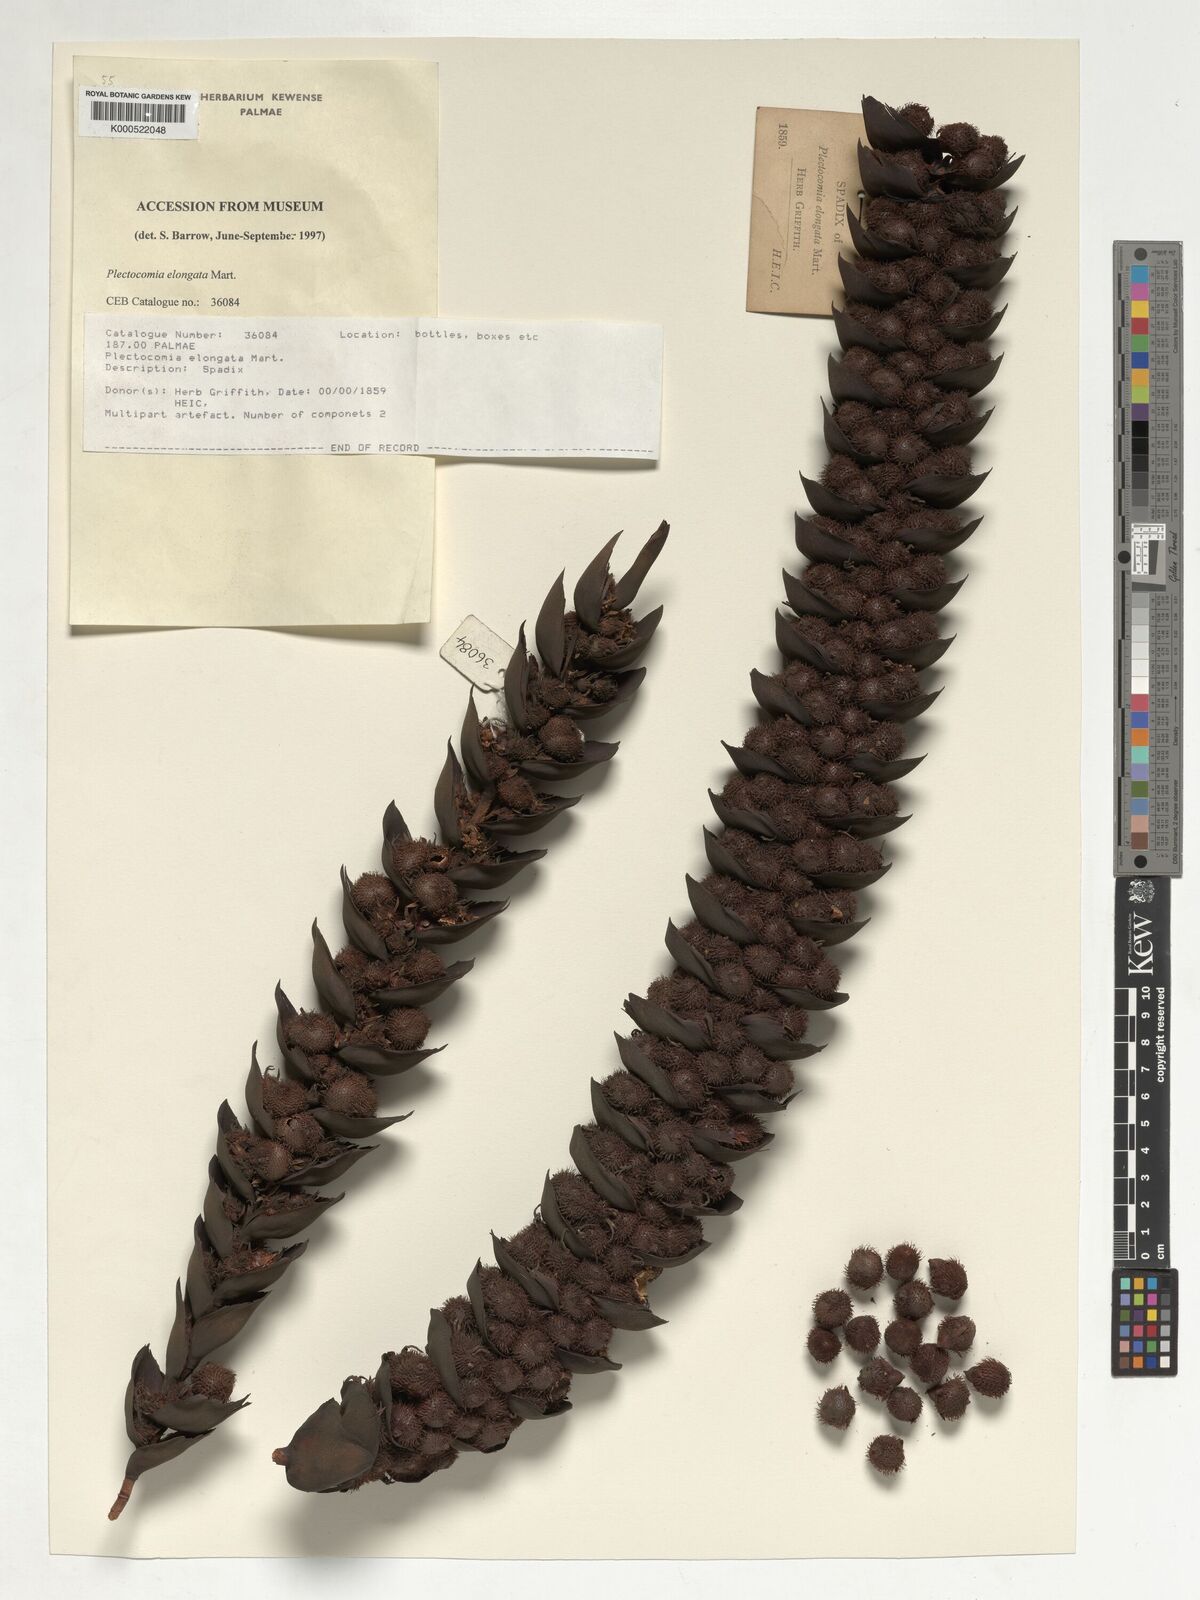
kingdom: Plantae
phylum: Tracheophyta
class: Liliopsida
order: Arecales
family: Arecaceae
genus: Plectocomia
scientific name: Plectocomia elongata
